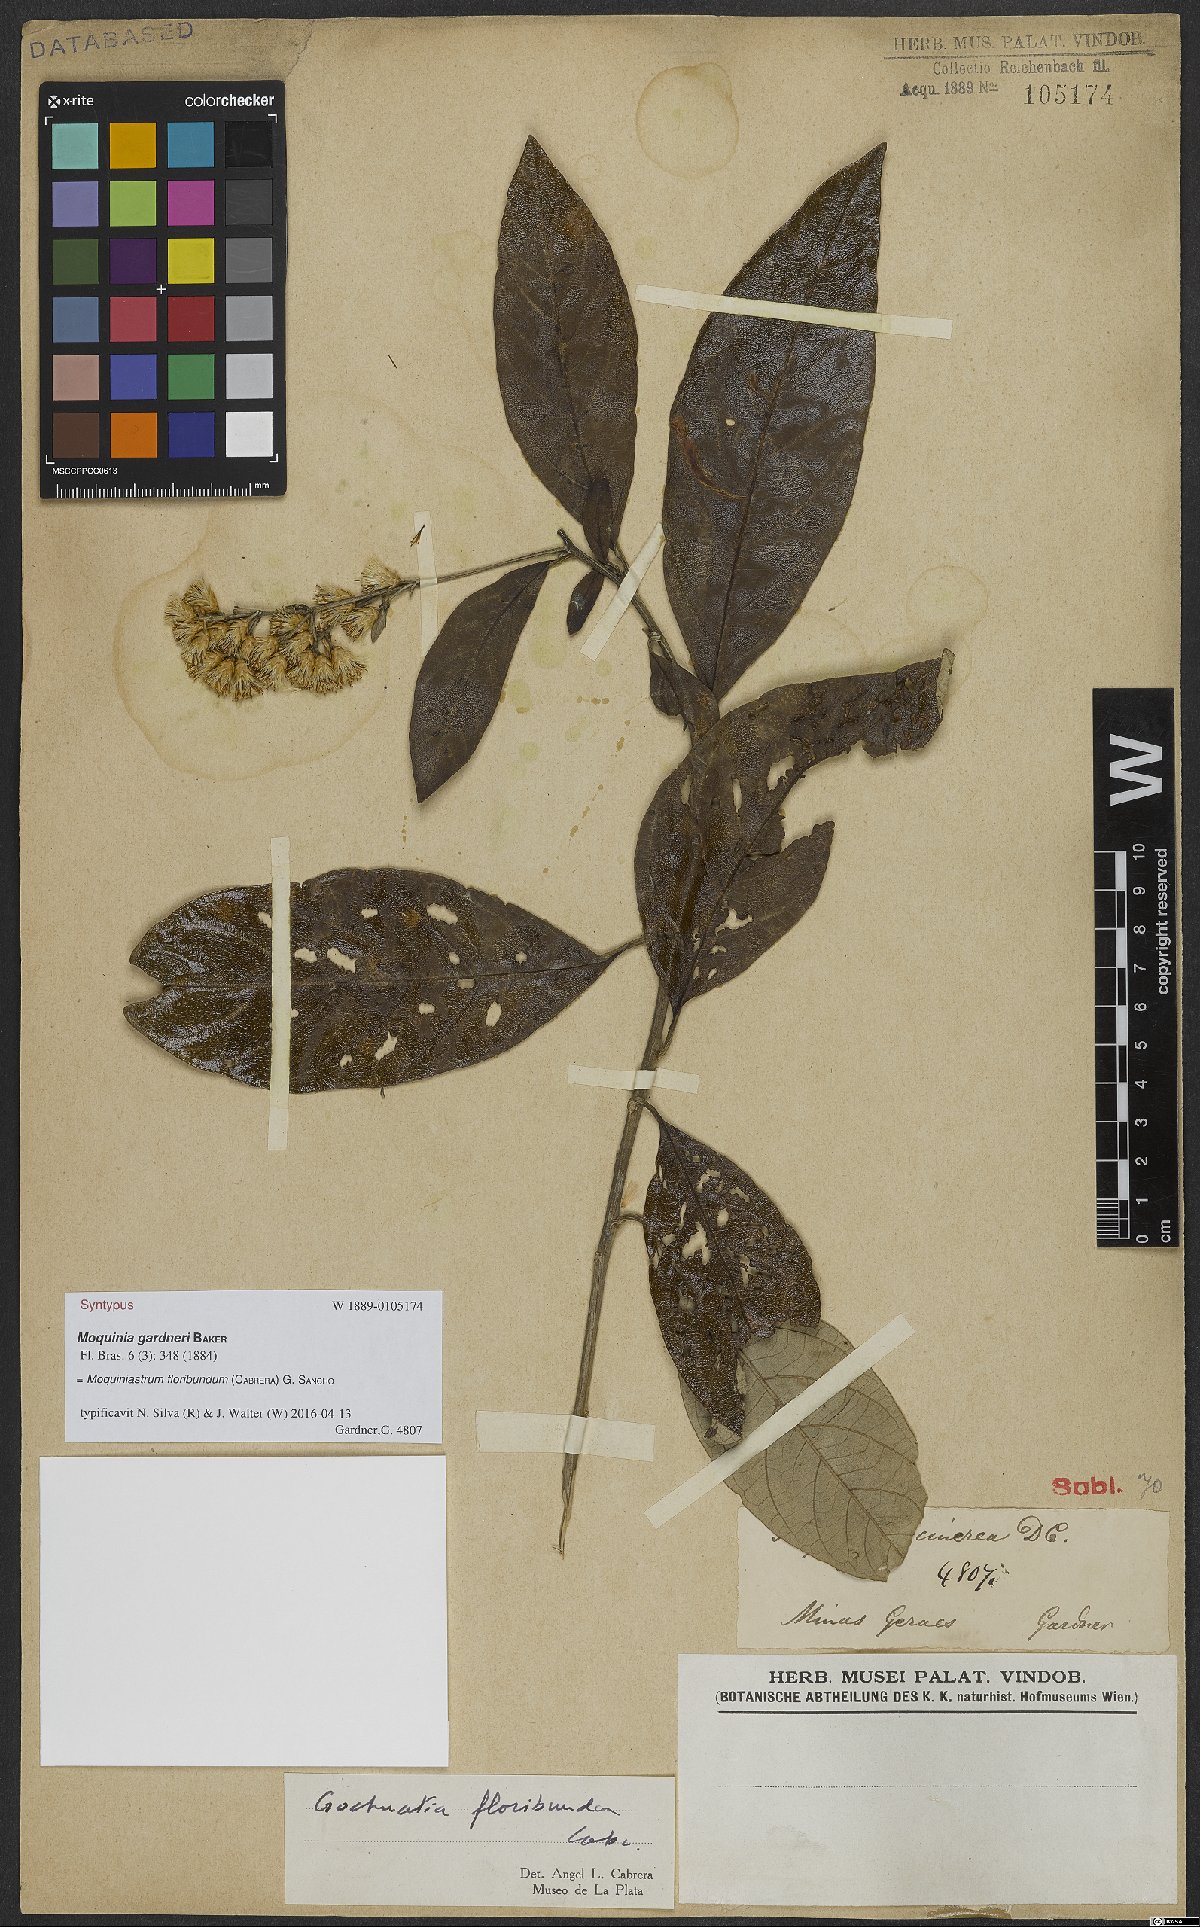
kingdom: Plantae
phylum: Tracheophyta
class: Magnoliopsida
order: Asterales
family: Asteraceae
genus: Moquiniastrum
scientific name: Moquiniastrum floribundum
